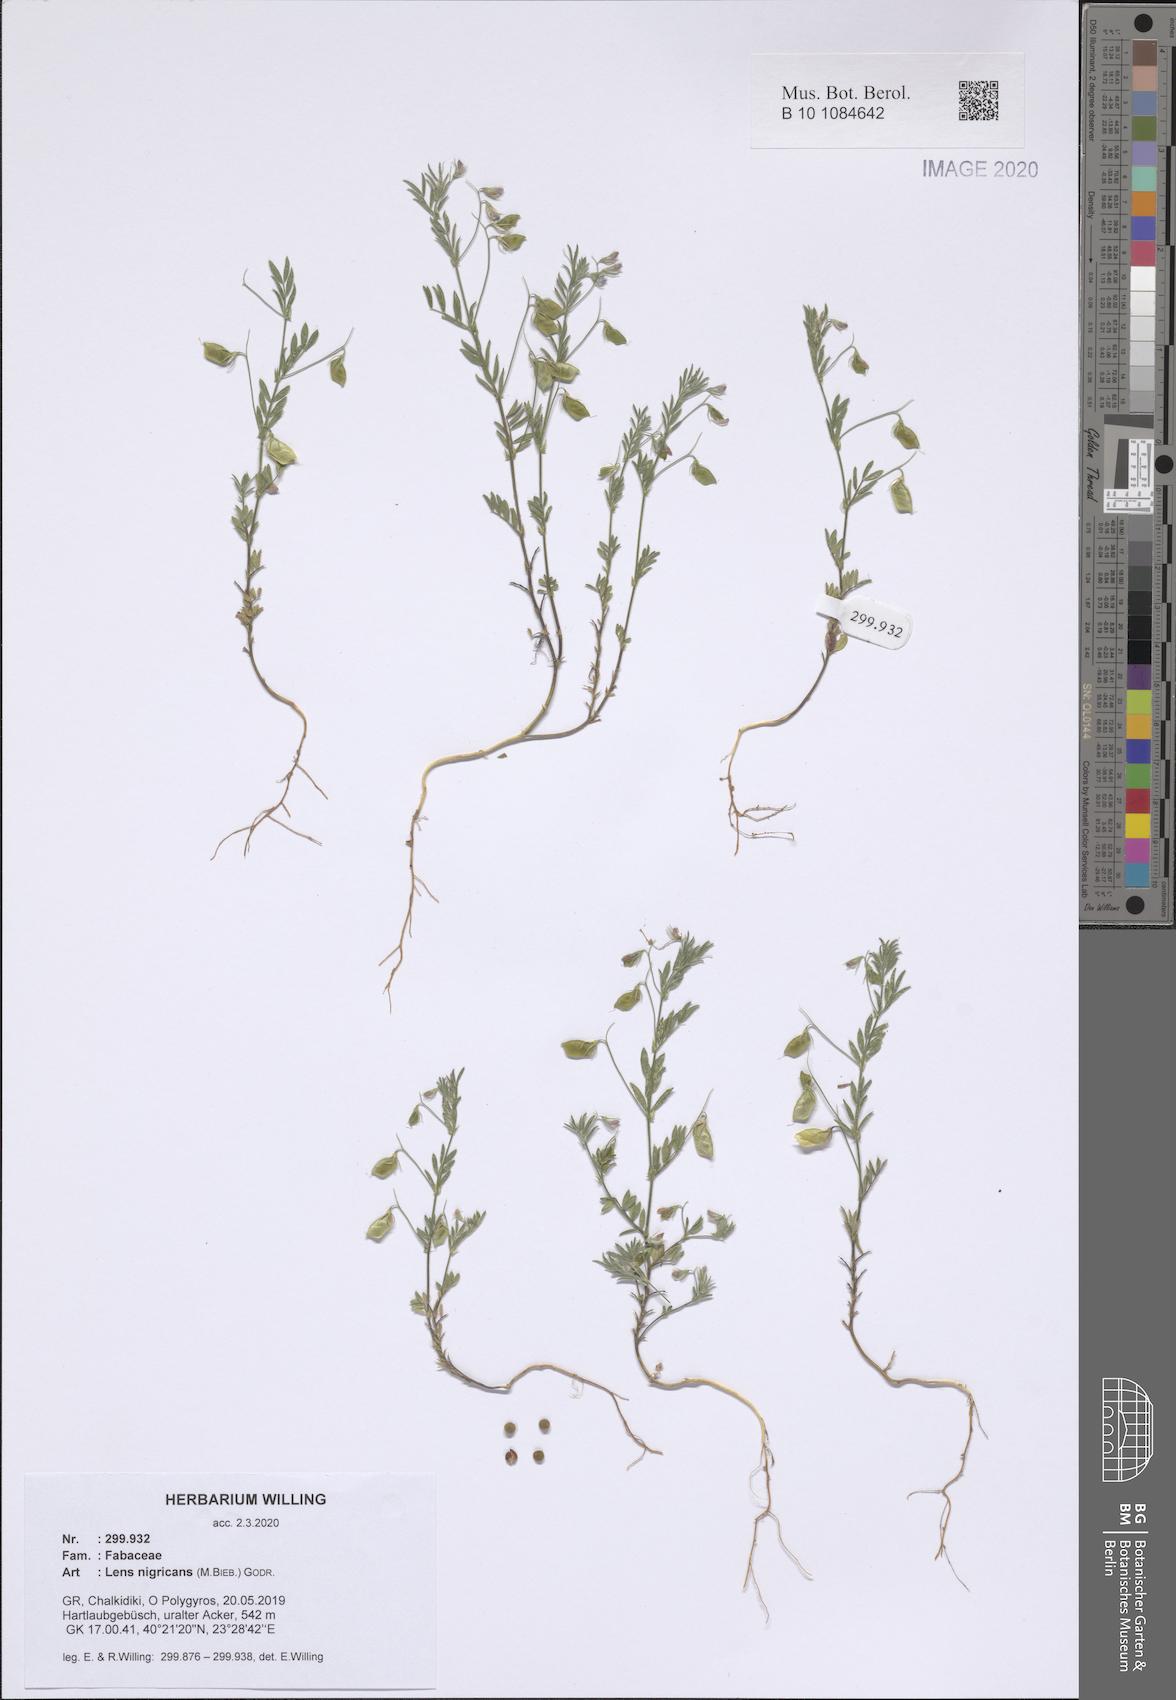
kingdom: Plantae
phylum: Tracheophyta
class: Magnoliopsida
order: Fabales
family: Fabaceae
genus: Vicia
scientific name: Vicia lentoides
